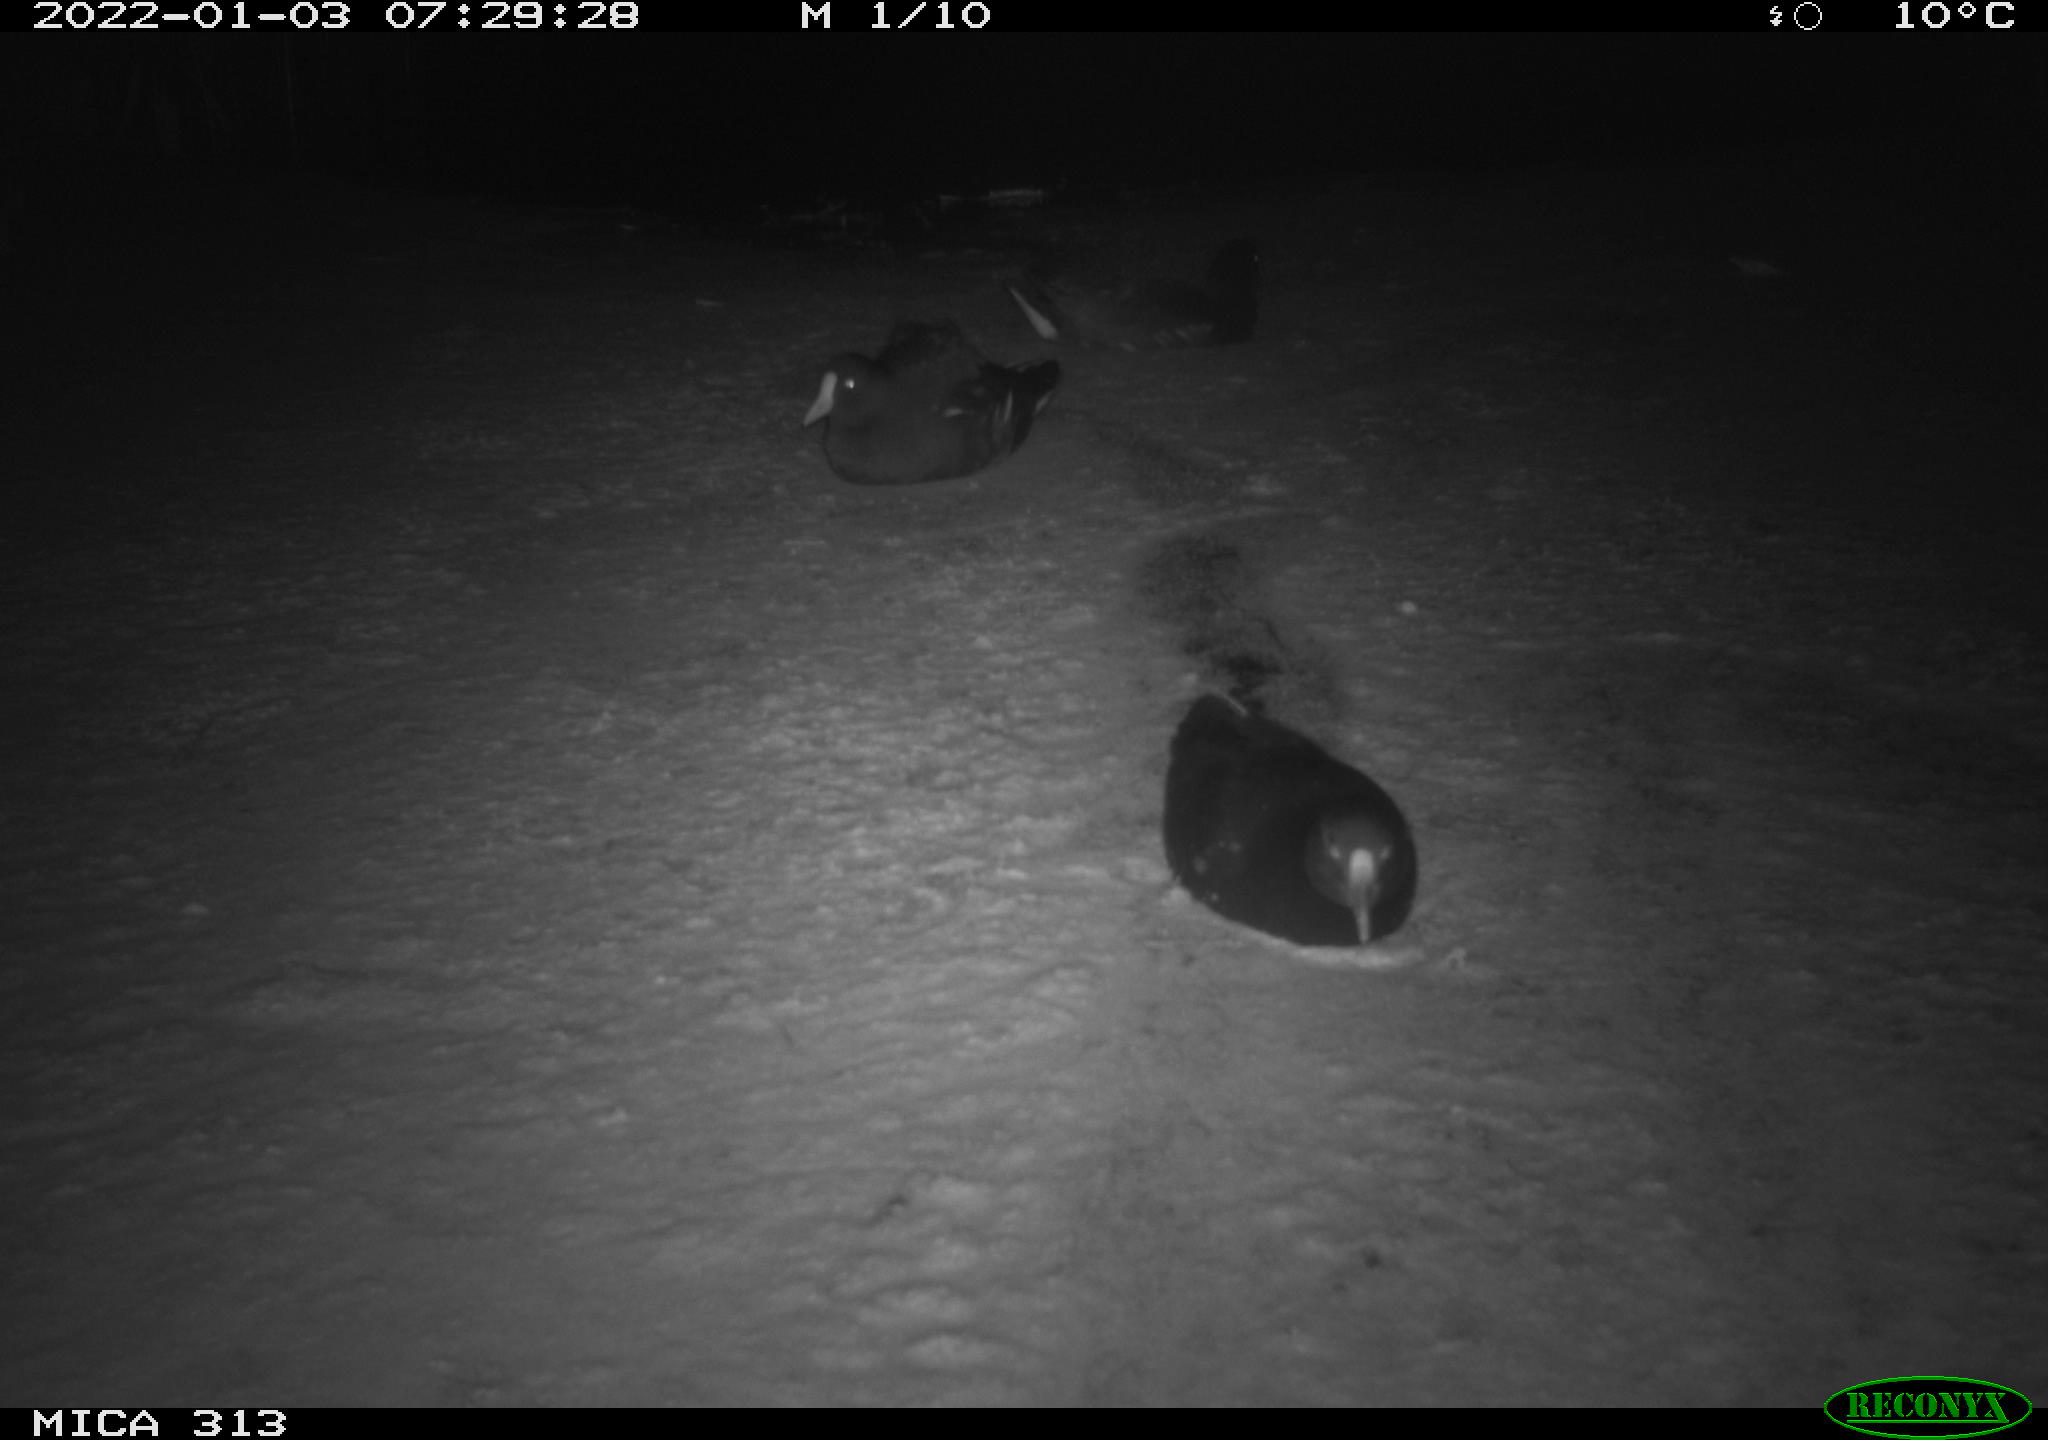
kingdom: Animalia
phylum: Chordata
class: Aves
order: Gruiformes
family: Rallidae
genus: Fulica
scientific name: Fulica atra
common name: Eurasian coot
